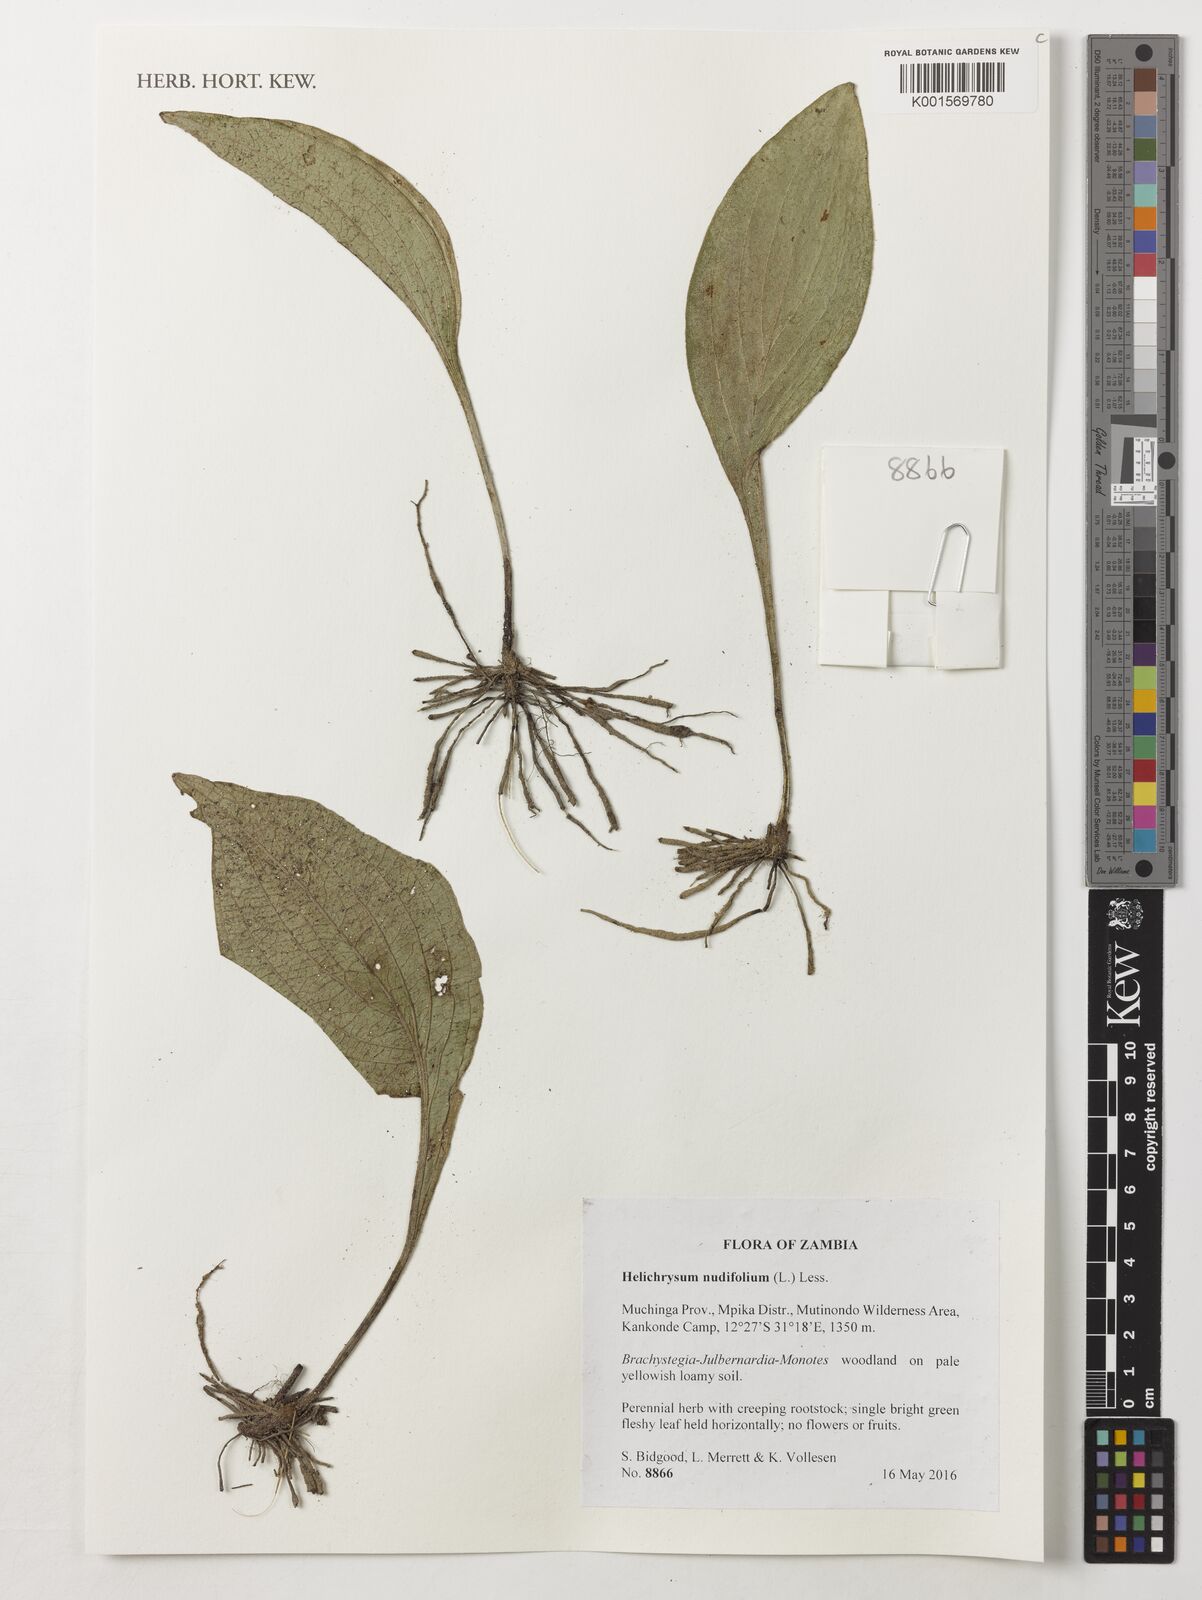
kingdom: Plantae
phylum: Tracheophyta
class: Magnoliopsida
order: Asterales
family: Asteraceae
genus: Helichrysum
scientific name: Helichrysum nudifolium
